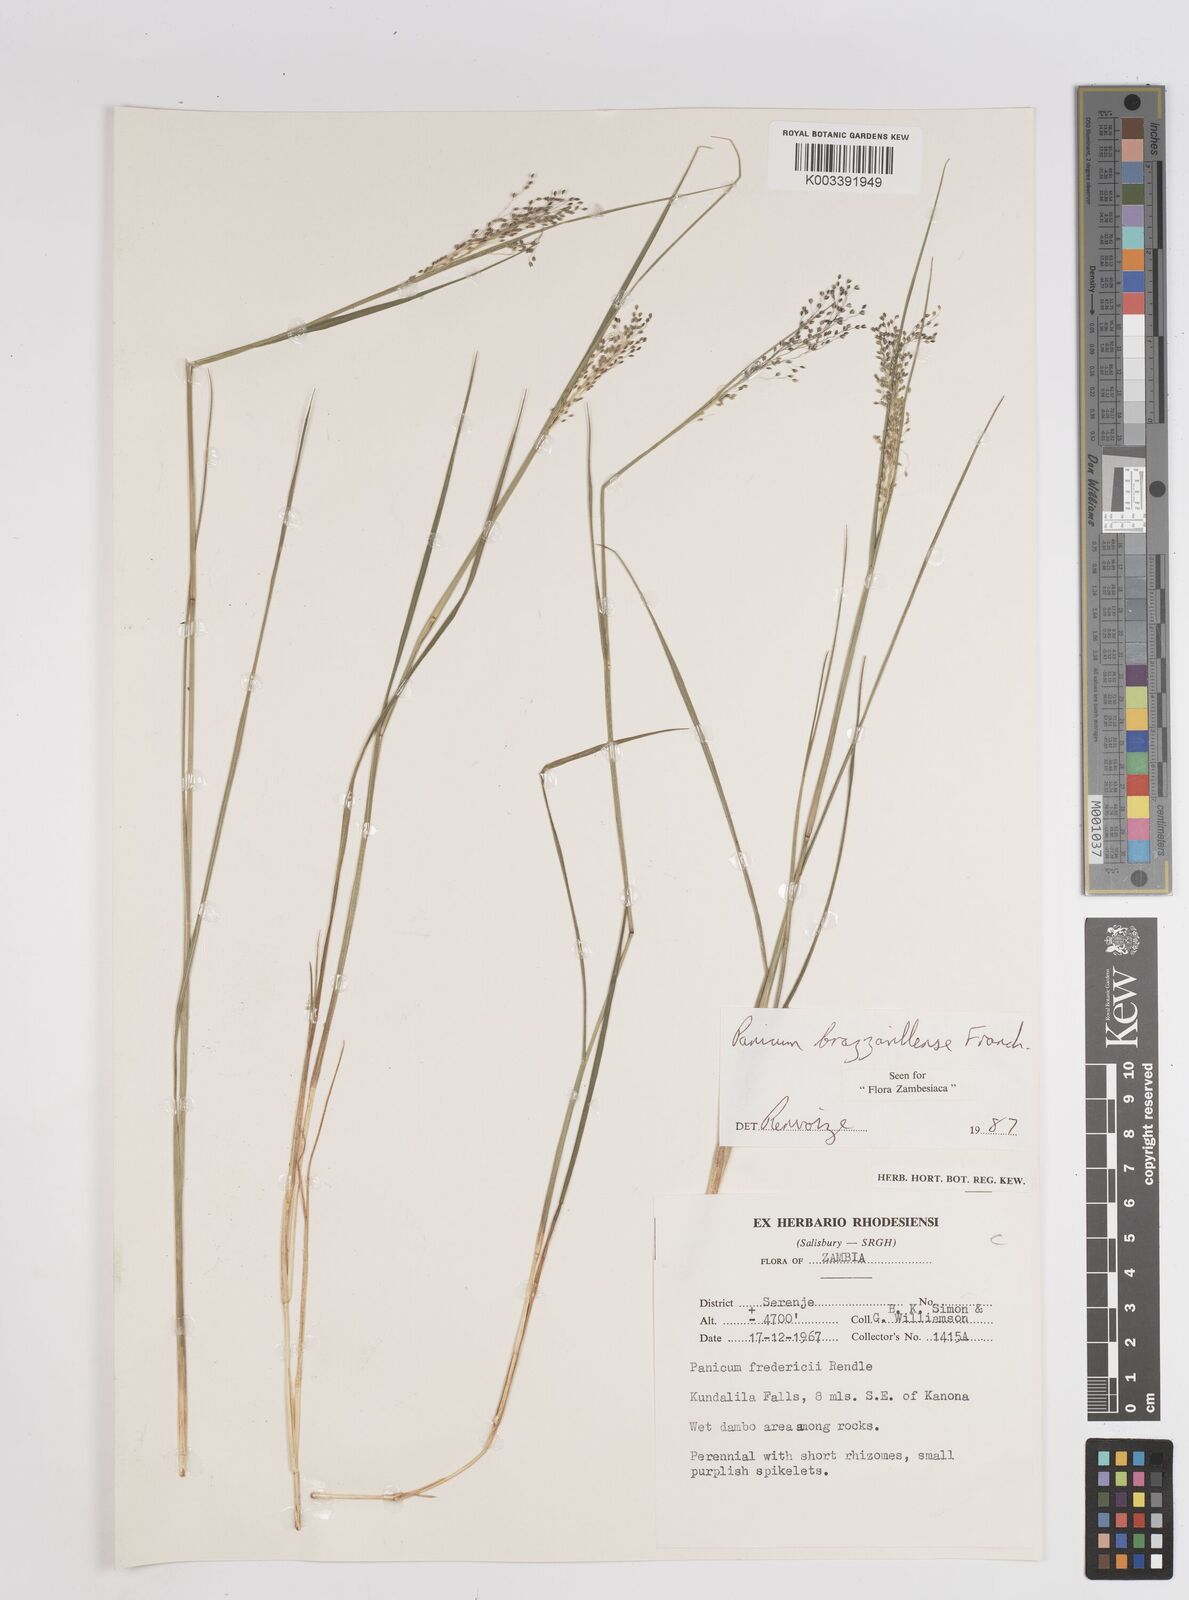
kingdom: Plantae
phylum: Tracheophyta
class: Liliopsida
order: Poales
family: Poaceae
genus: Trichanthecium
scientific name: Trichanthecium brazzavillense
